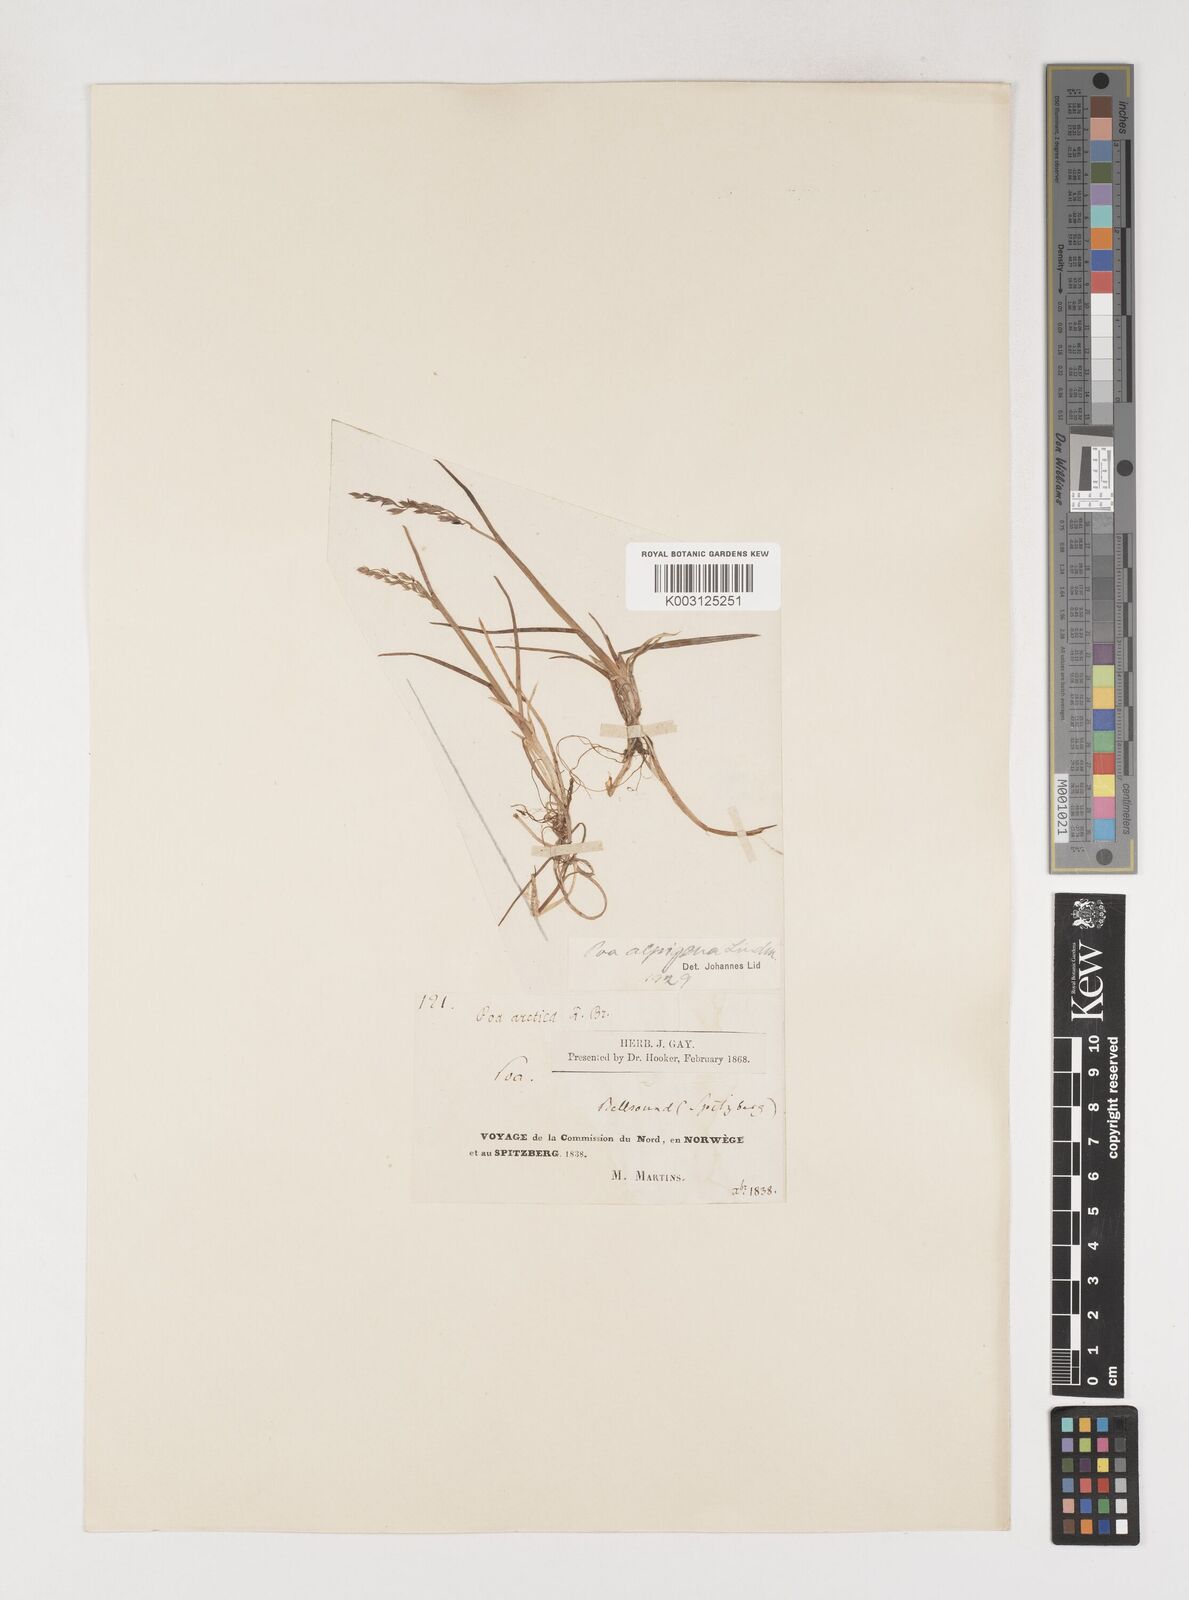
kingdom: Plantae
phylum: Tracheophyta
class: Liliopsida
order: Poales
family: Poaceae
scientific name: Poaceae
